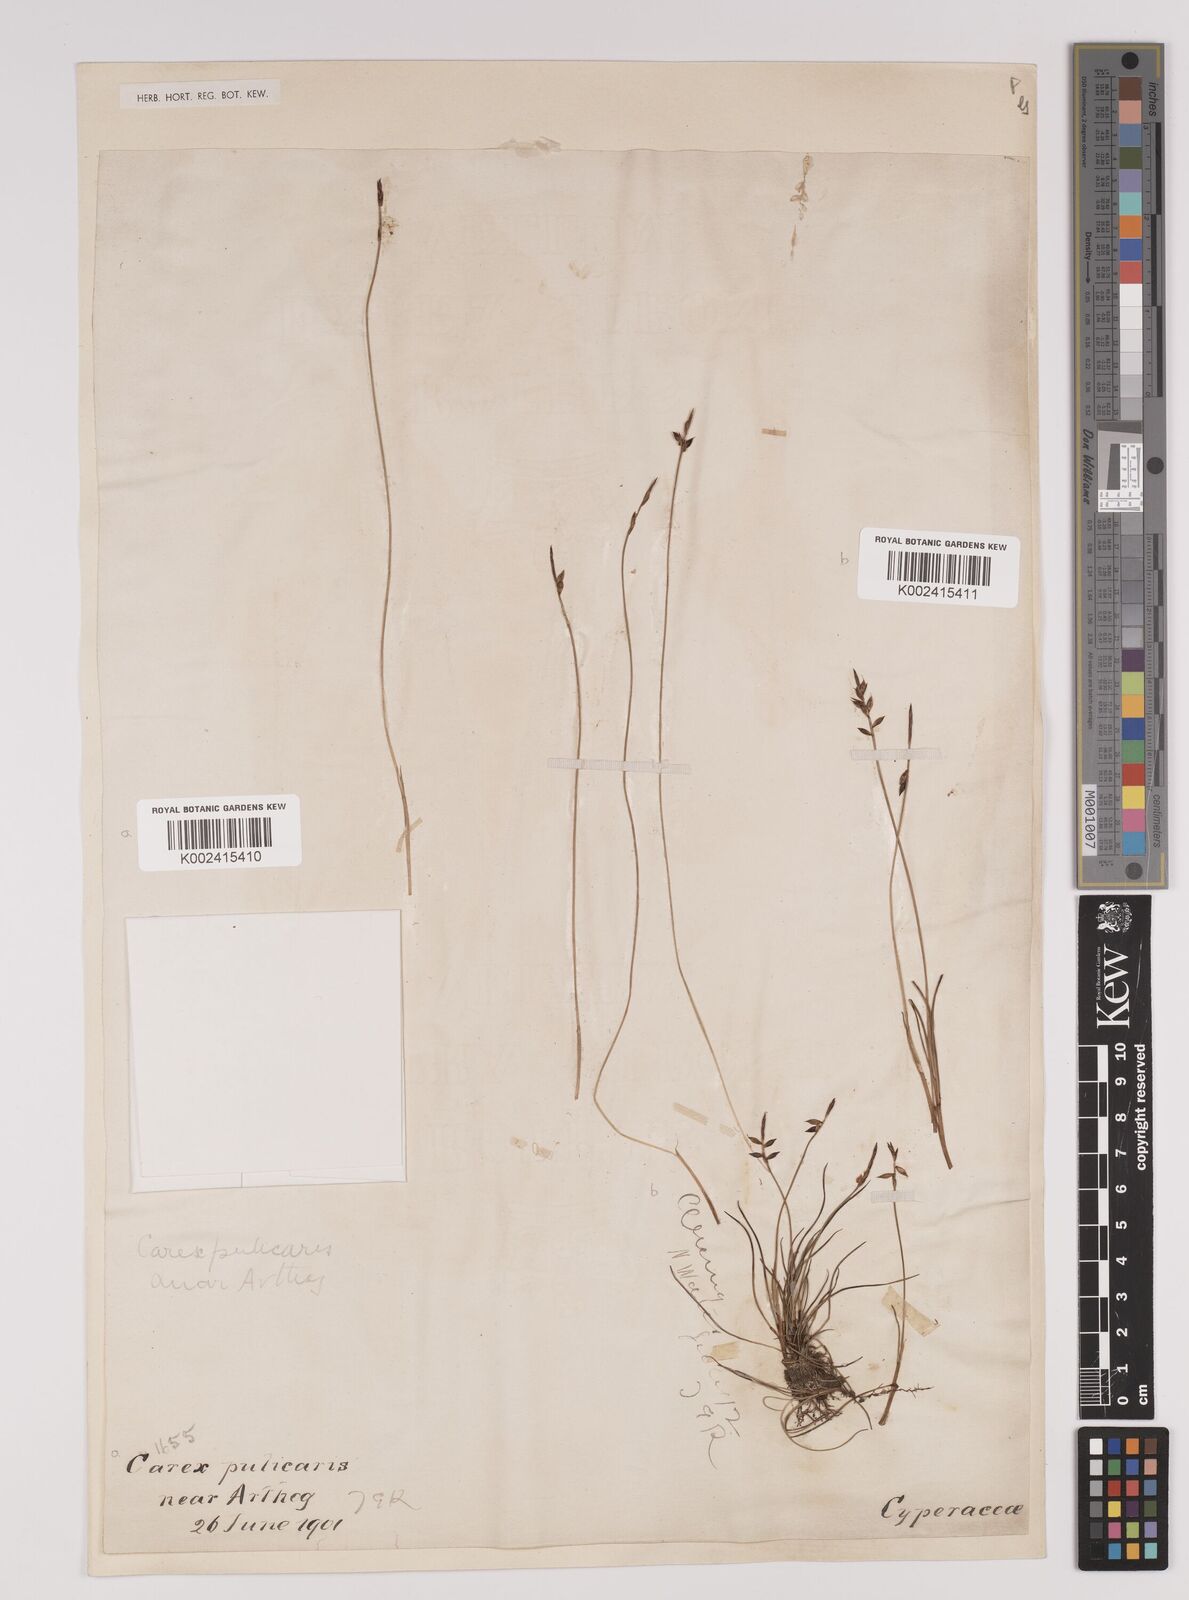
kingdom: Plantae
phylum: Tracheophyta
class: Liliopsida
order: Poales
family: Cyperaceae
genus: Carex
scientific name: Carex pulicaris
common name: Flea sedge
